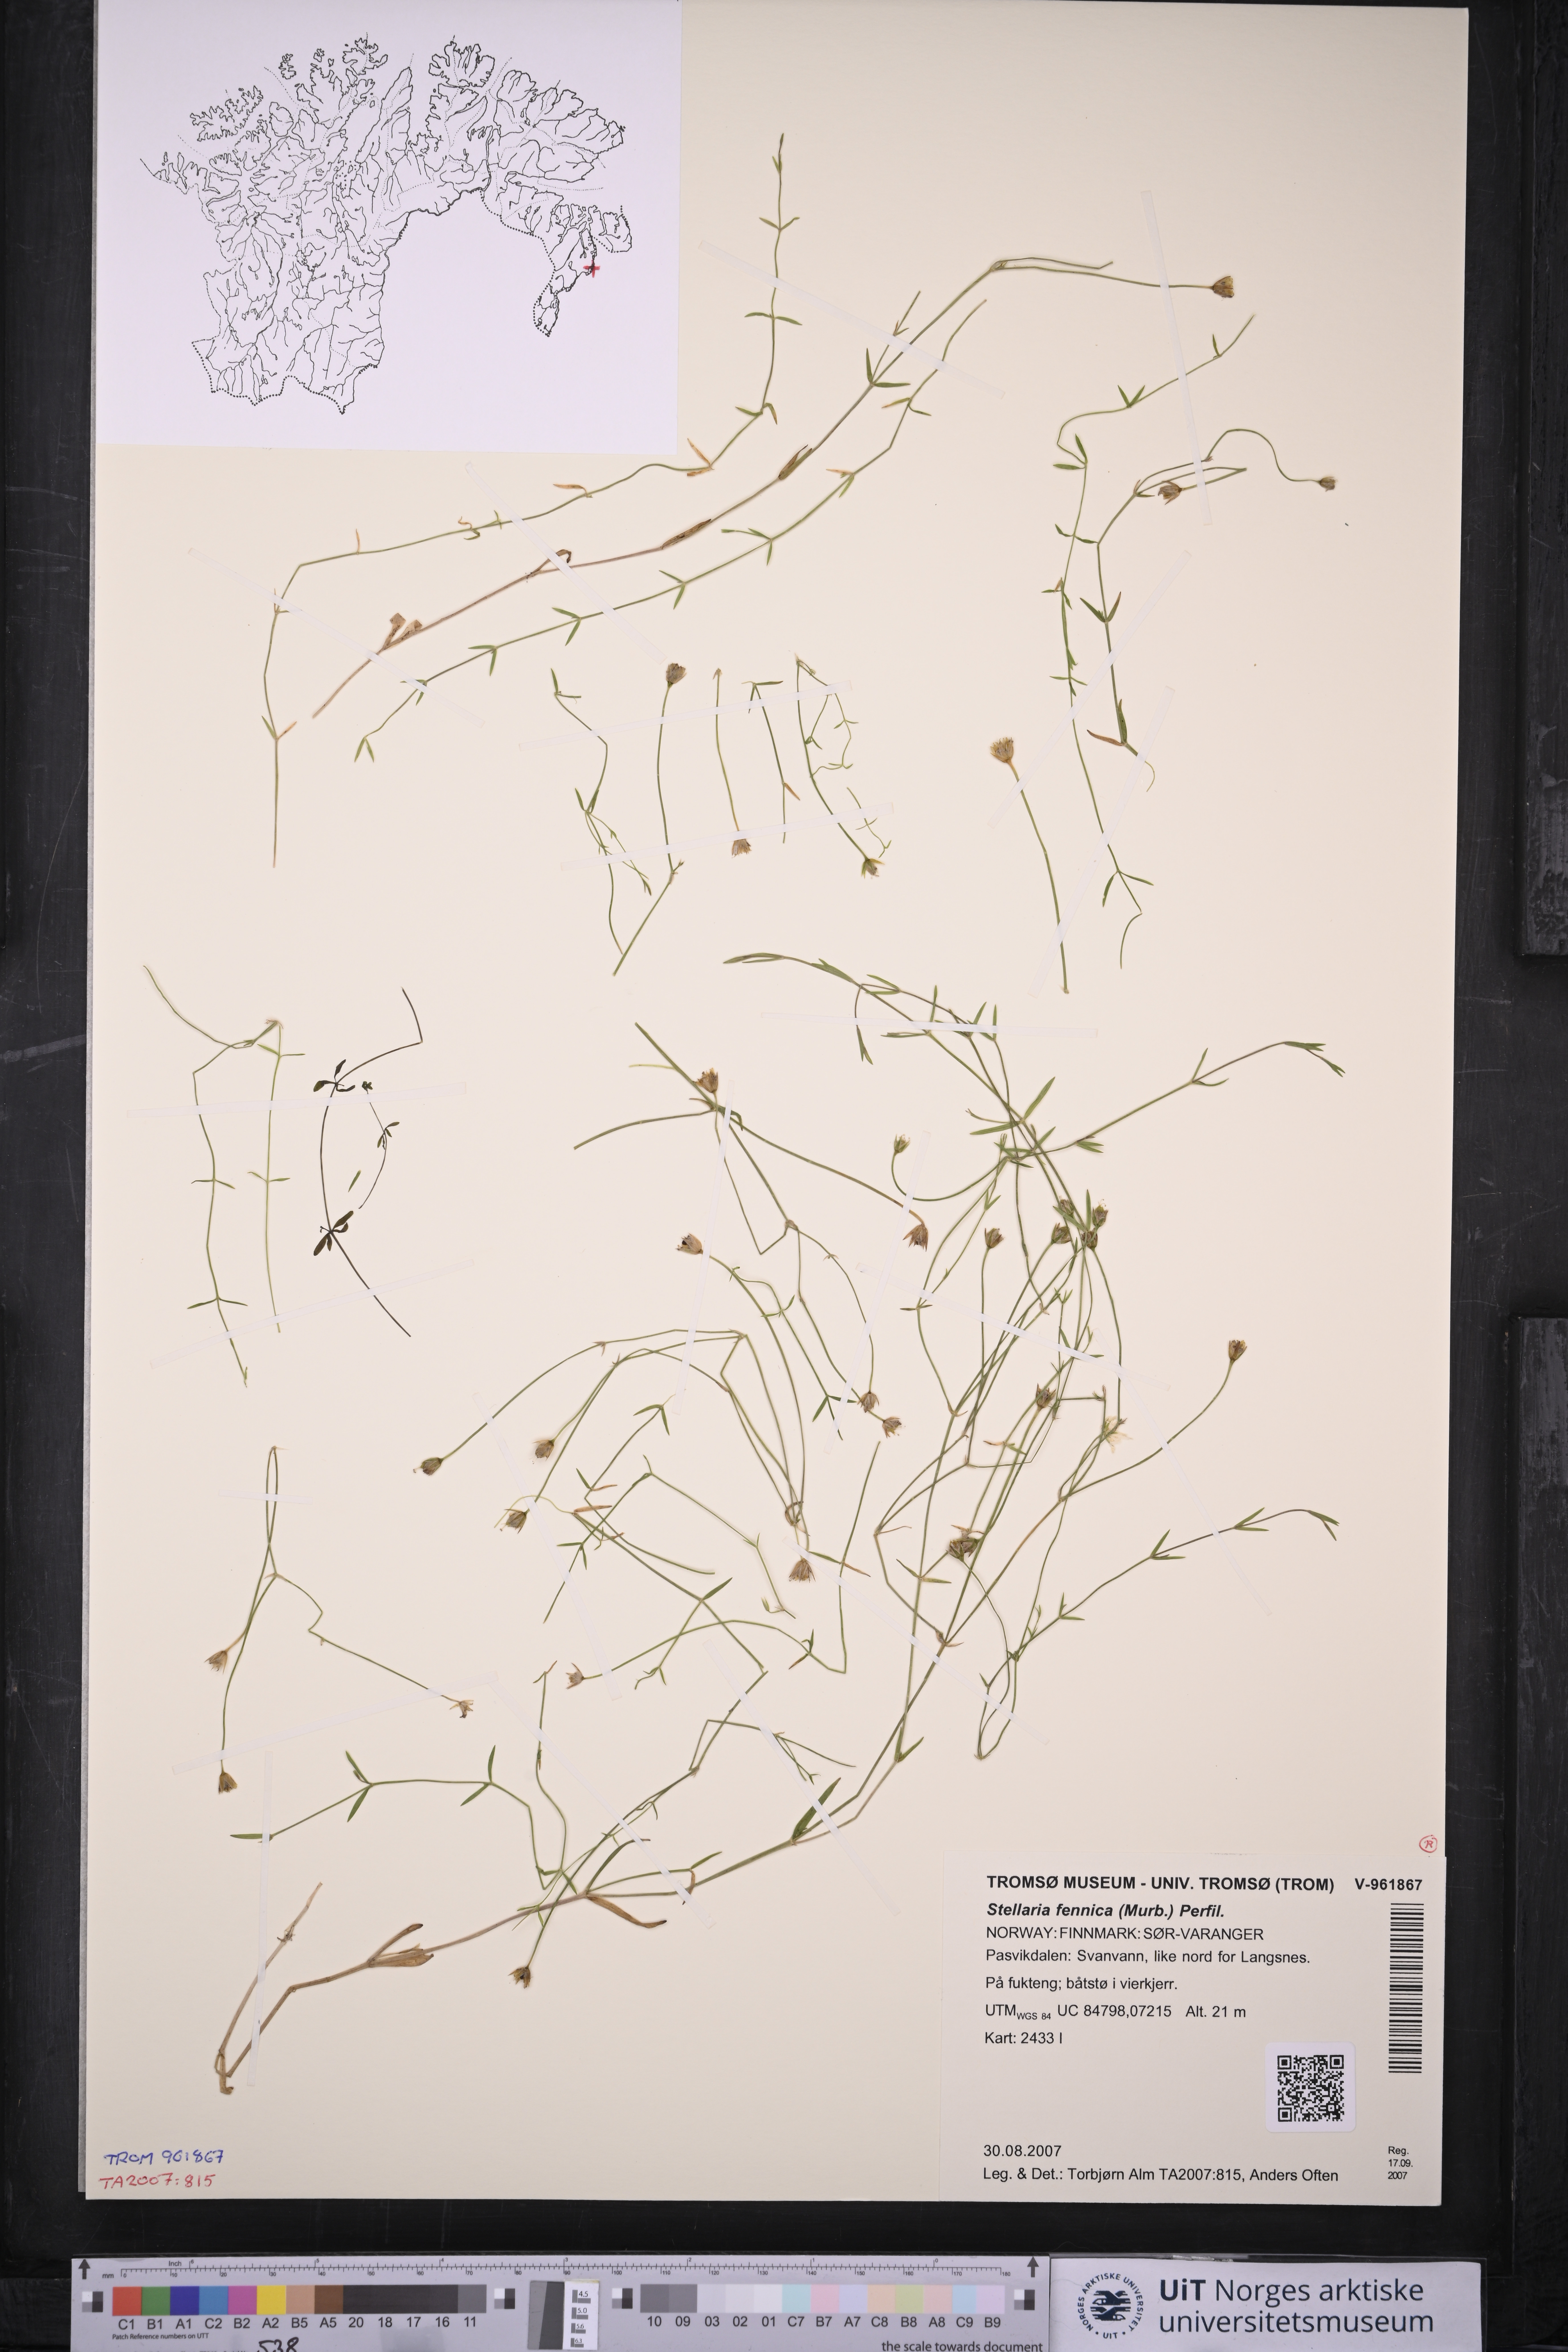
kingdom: Plantae
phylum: Tracheophyta
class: Magnoliopsida
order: Caryophyllales
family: Caryophyllaceae
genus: Stellaria
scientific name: Stellaria fennica
